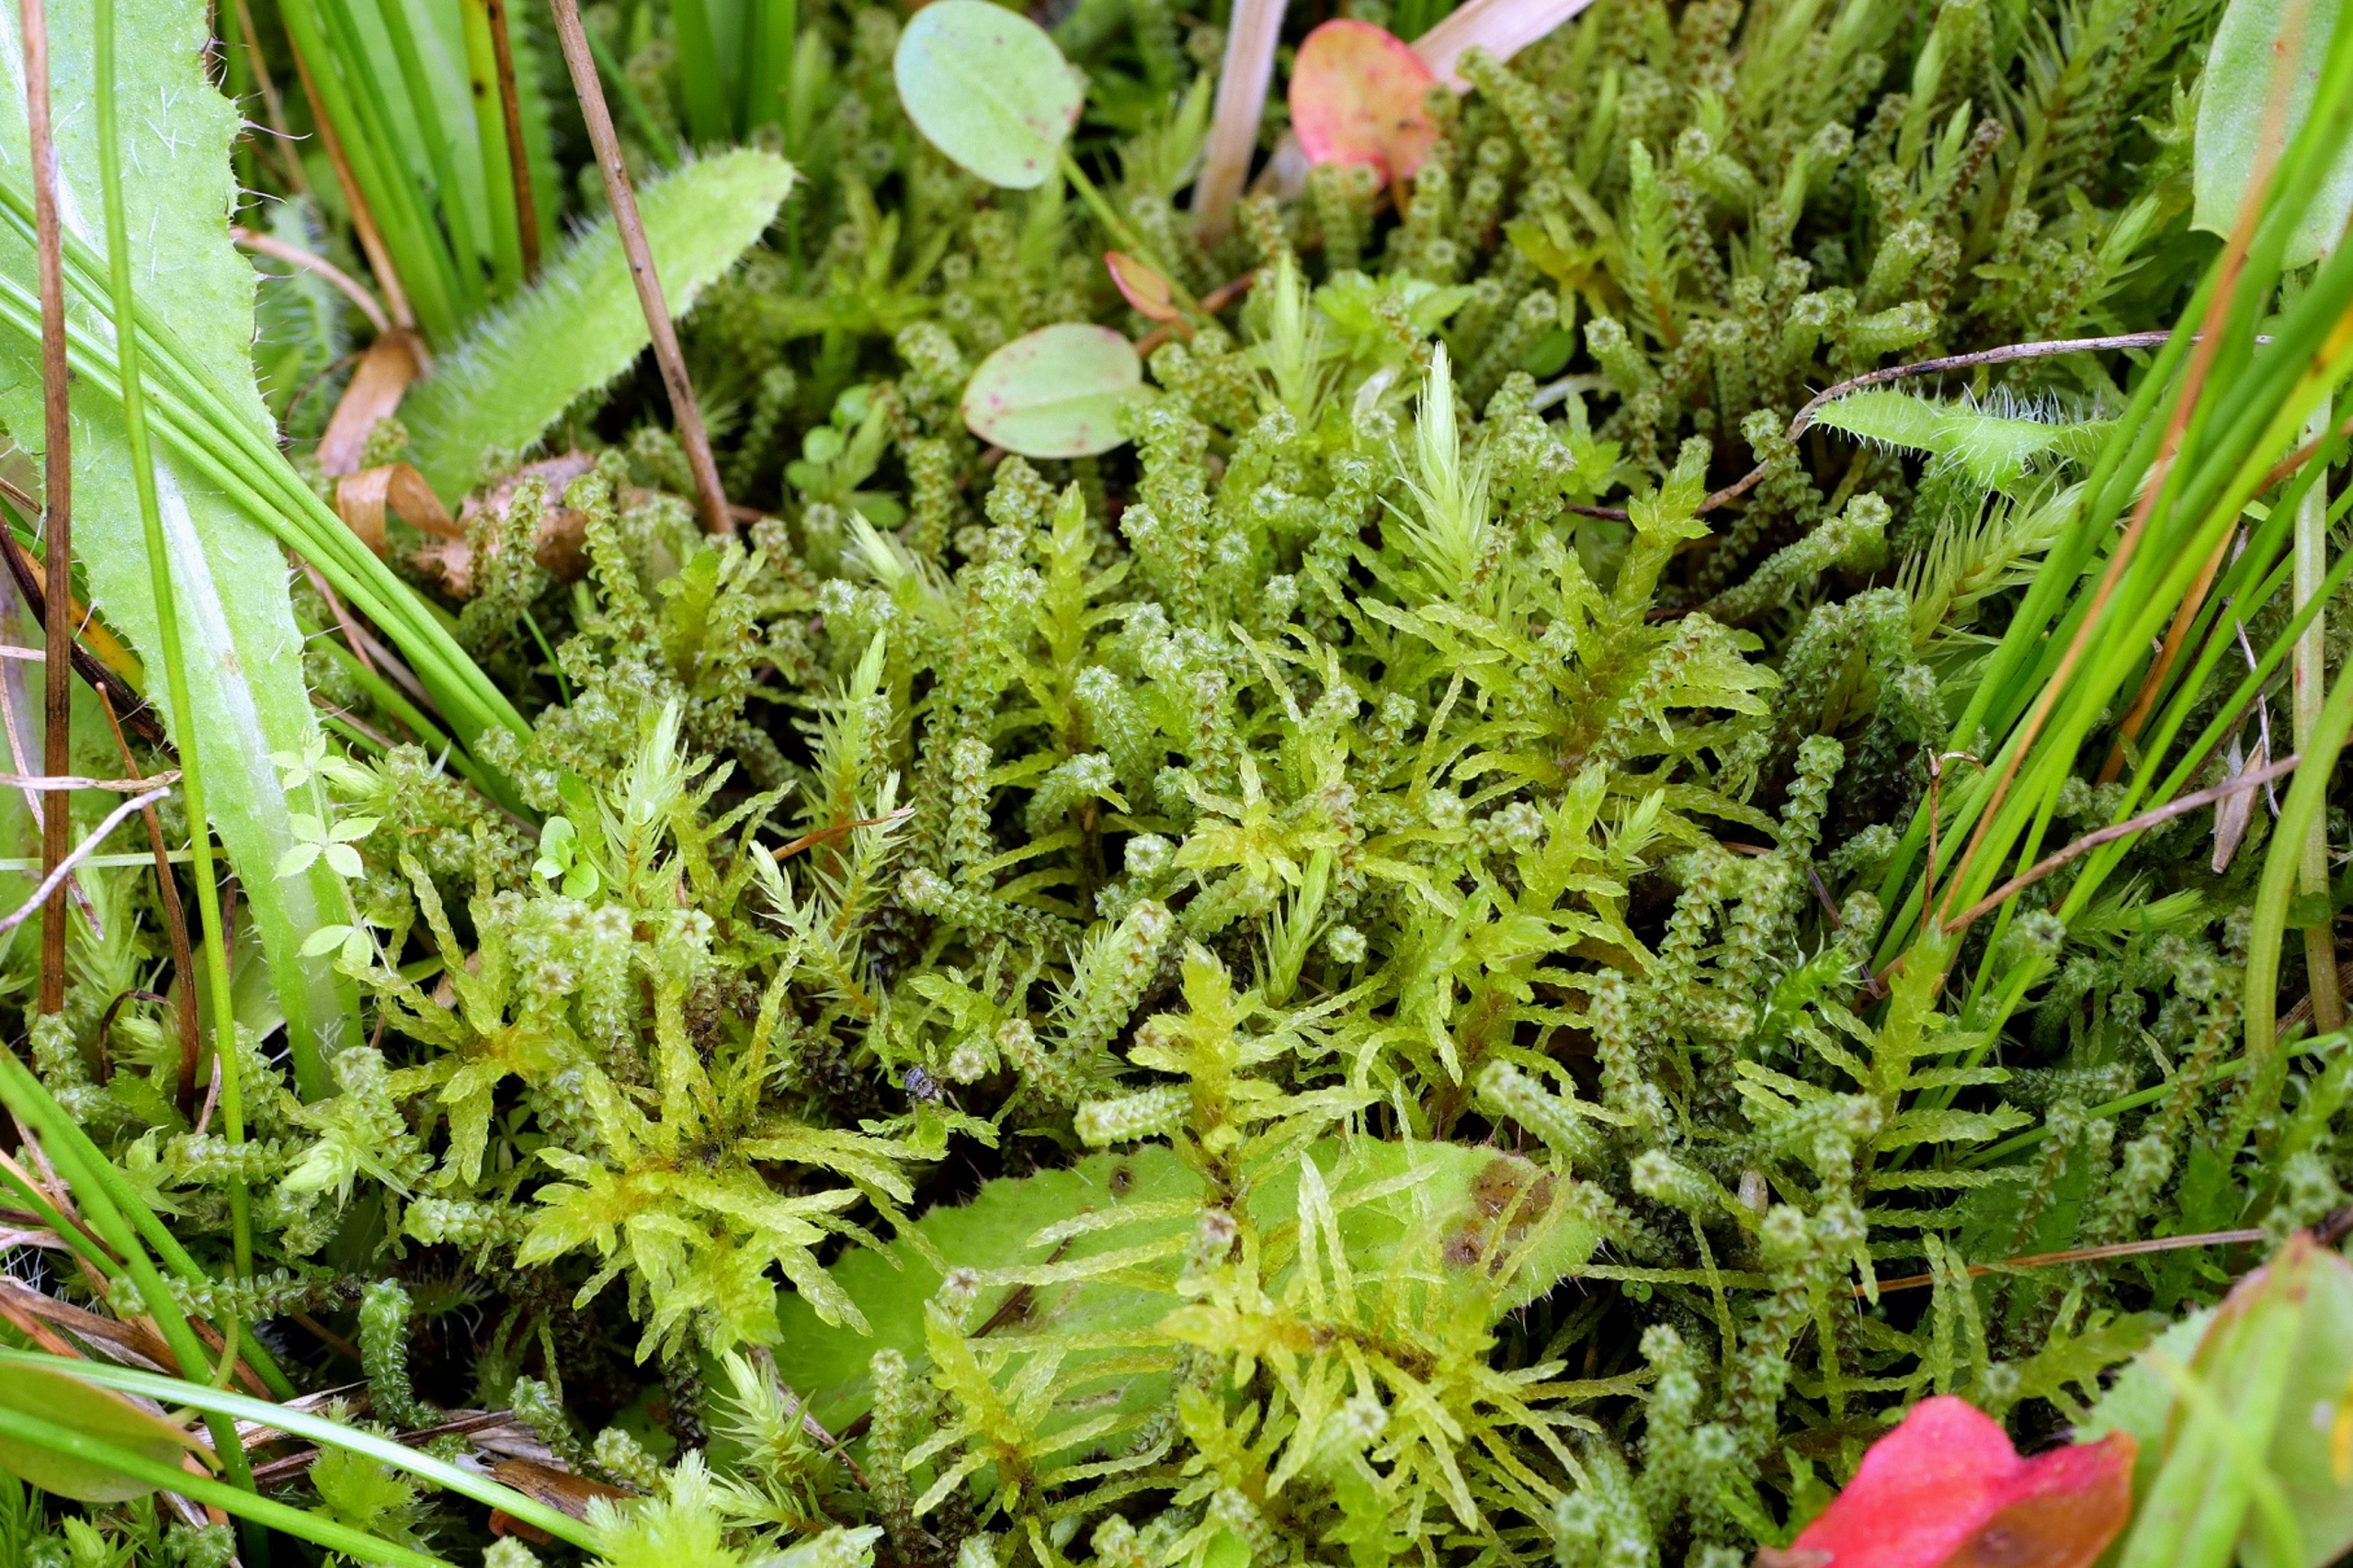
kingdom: Plantae
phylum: Bryophyta
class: Bryopsida
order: Splachnales
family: Meesiaceae
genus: Paludella
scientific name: Paludella squarrosa
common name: Almindelig piberensermos
